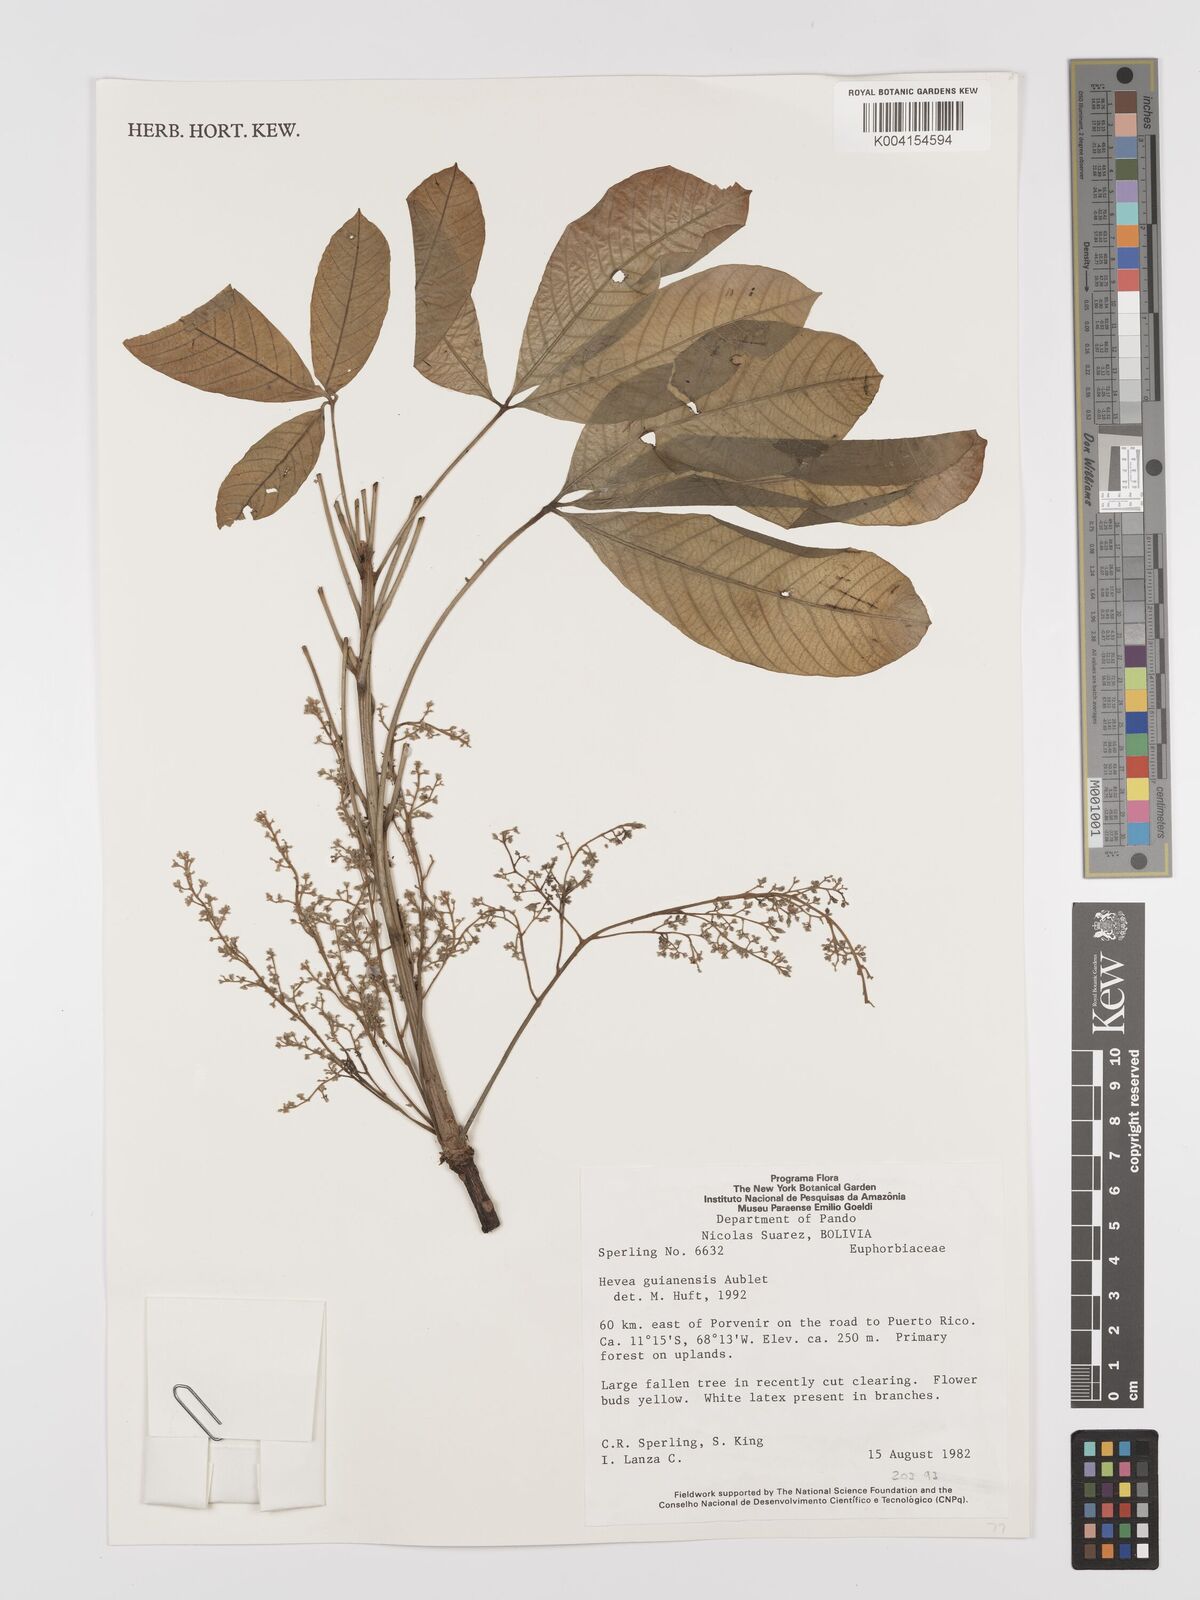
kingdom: Plantae
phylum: Tracheophyta
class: Magnoliopsida
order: Malpighiales
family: Euphorbiaceae
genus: Hevea
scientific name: Hevea guianensis
